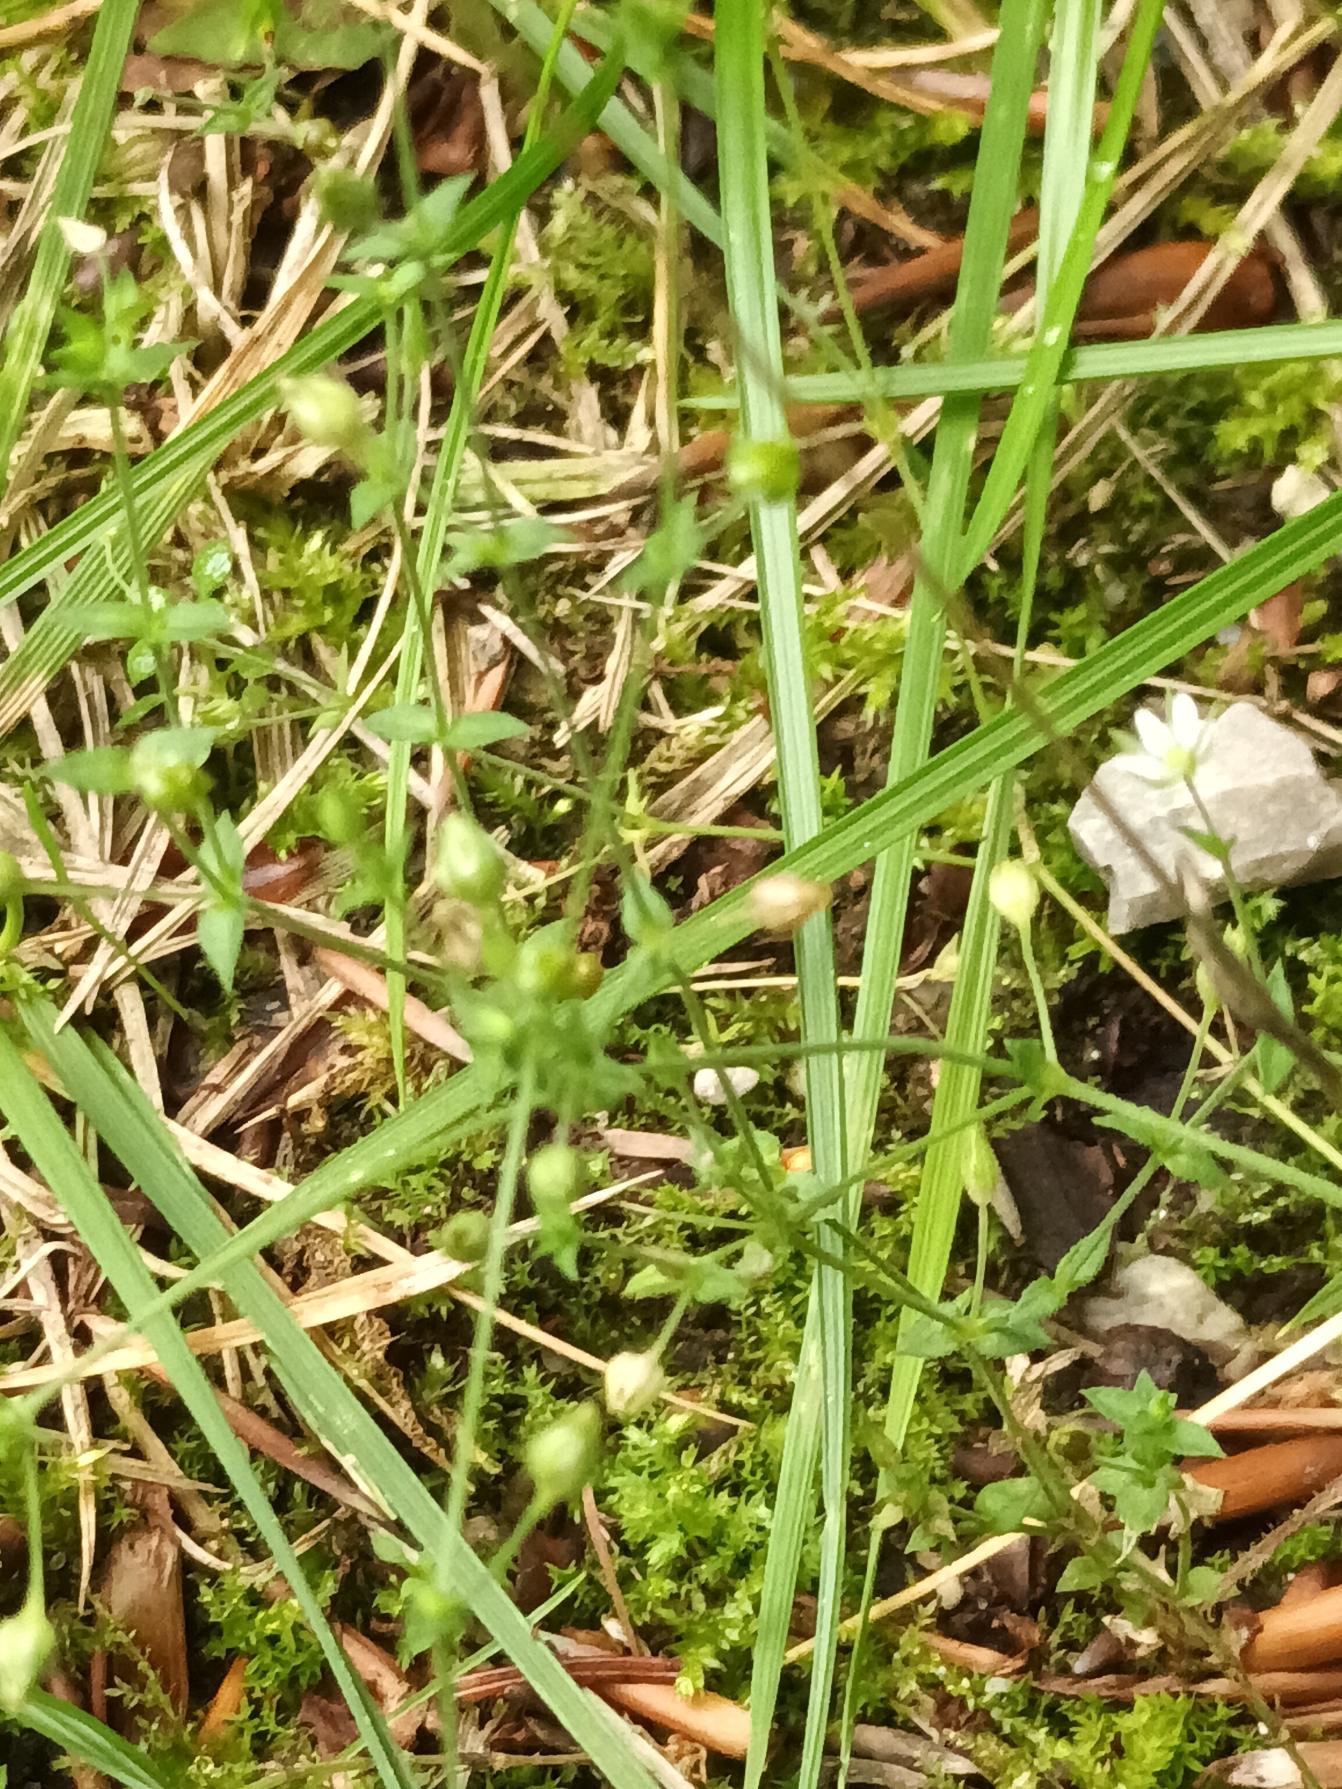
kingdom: Plantae
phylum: Tracheophyta
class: Magnoliopsida
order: Caryophyllales
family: Caryophyllaceae
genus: Arenaria
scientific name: Arenaria serpyllifolia
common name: Almindelig markarve
